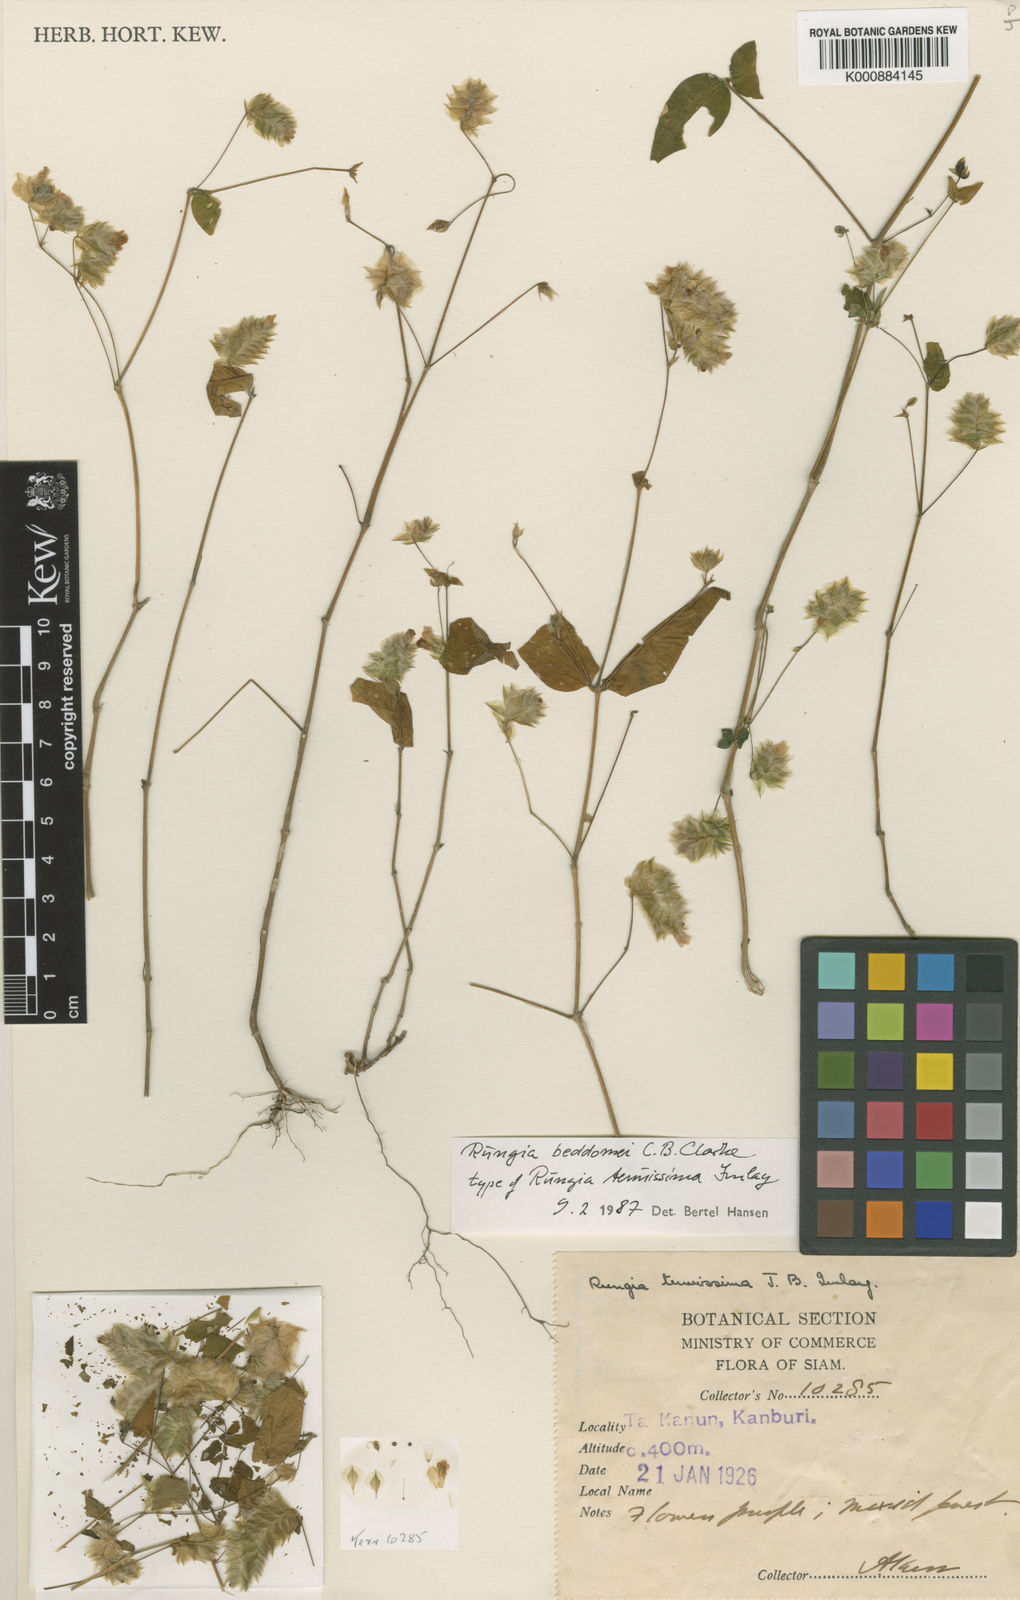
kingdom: Plantae
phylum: Tracheophyta
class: Magnoliopsida
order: Lamiales
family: Acanthaceae
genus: Justicia
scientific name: Justicia beddomei
